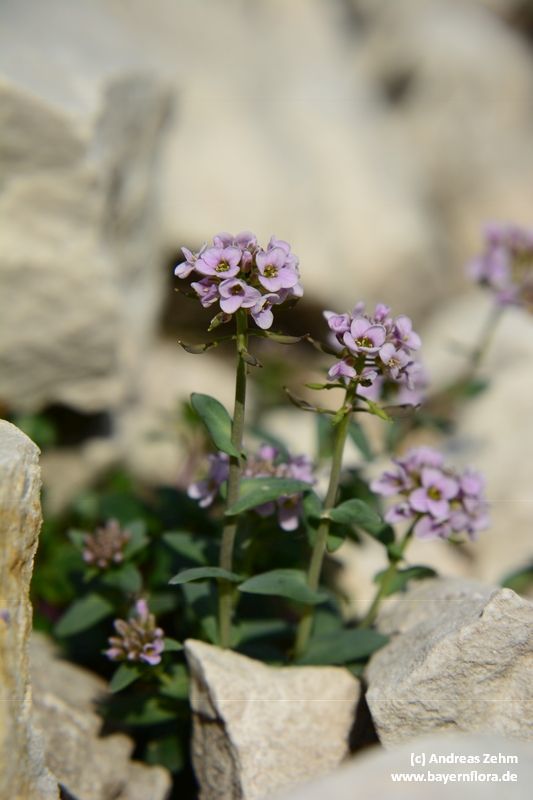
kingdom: Plantae
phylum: Tracheophyta
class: Magnoliopsida
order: Brassicales
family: Brassicaceae
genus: Noccaea
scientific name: Noccaea rotundifolia
